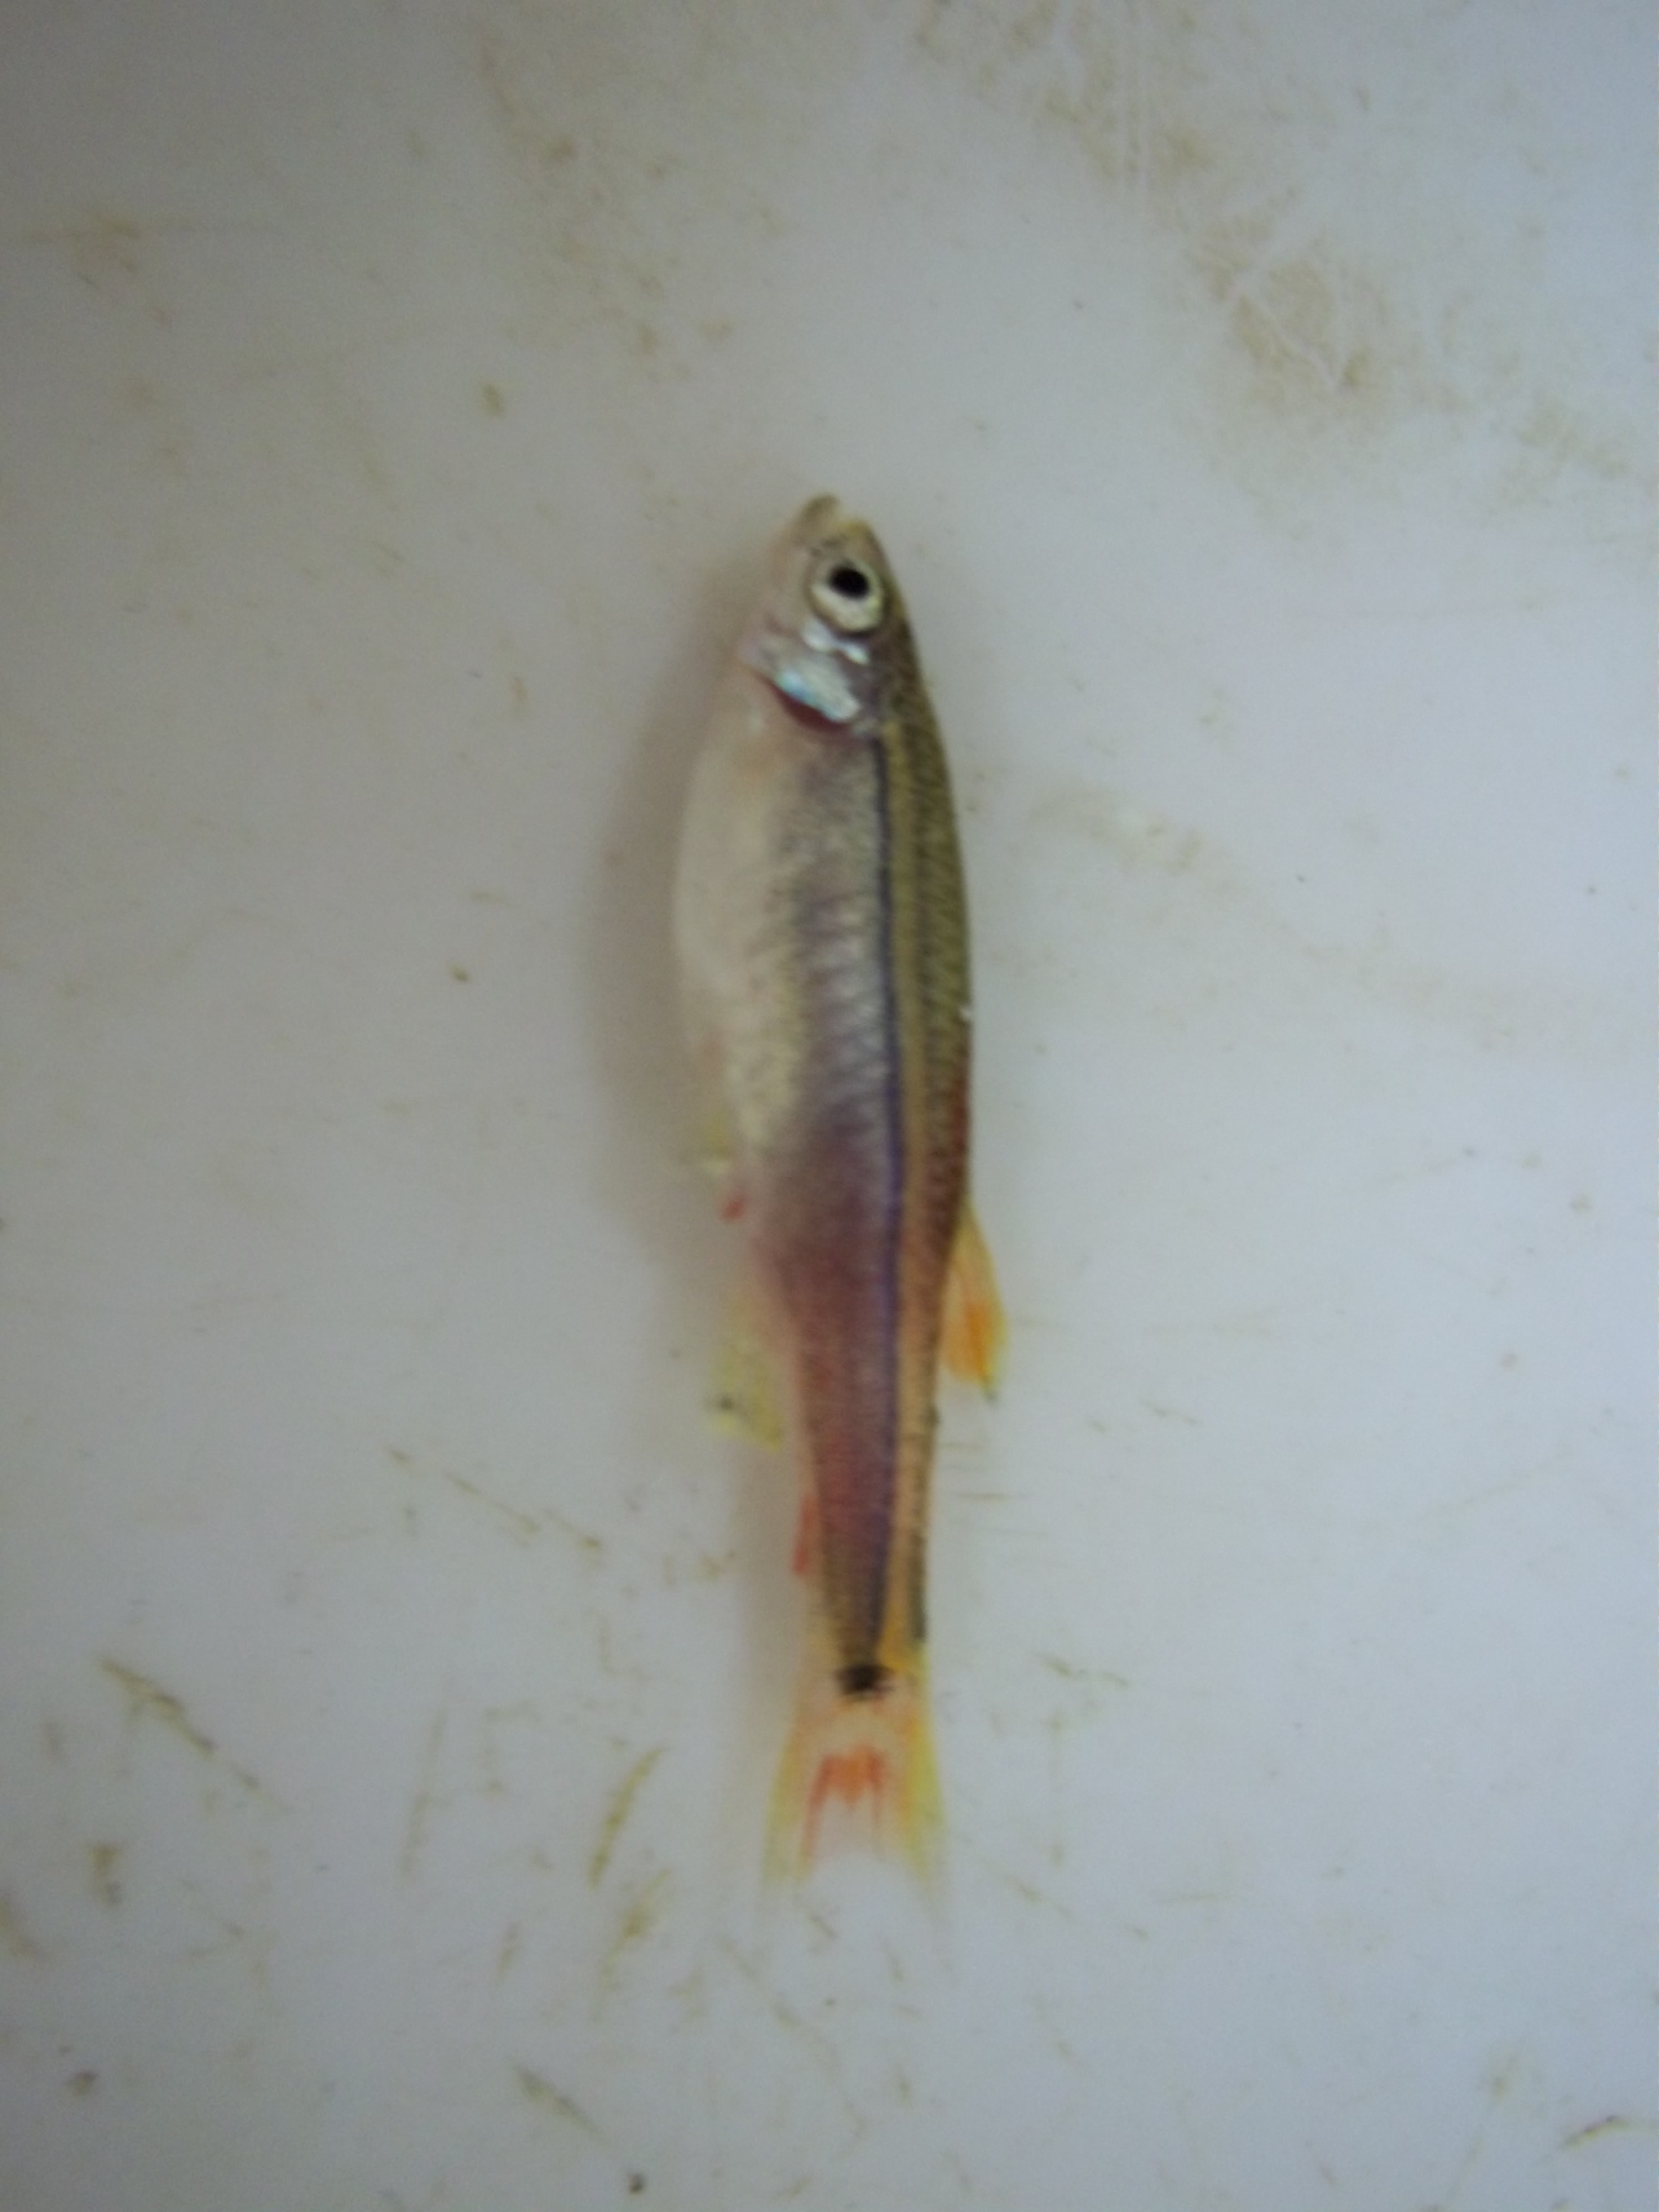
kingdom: Animalia
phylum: Chordata
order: Cypriniformes
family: Cyprinidae
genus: Tanichthys
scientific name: Tanichthys albonubes
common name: White cloud mountain minnow
